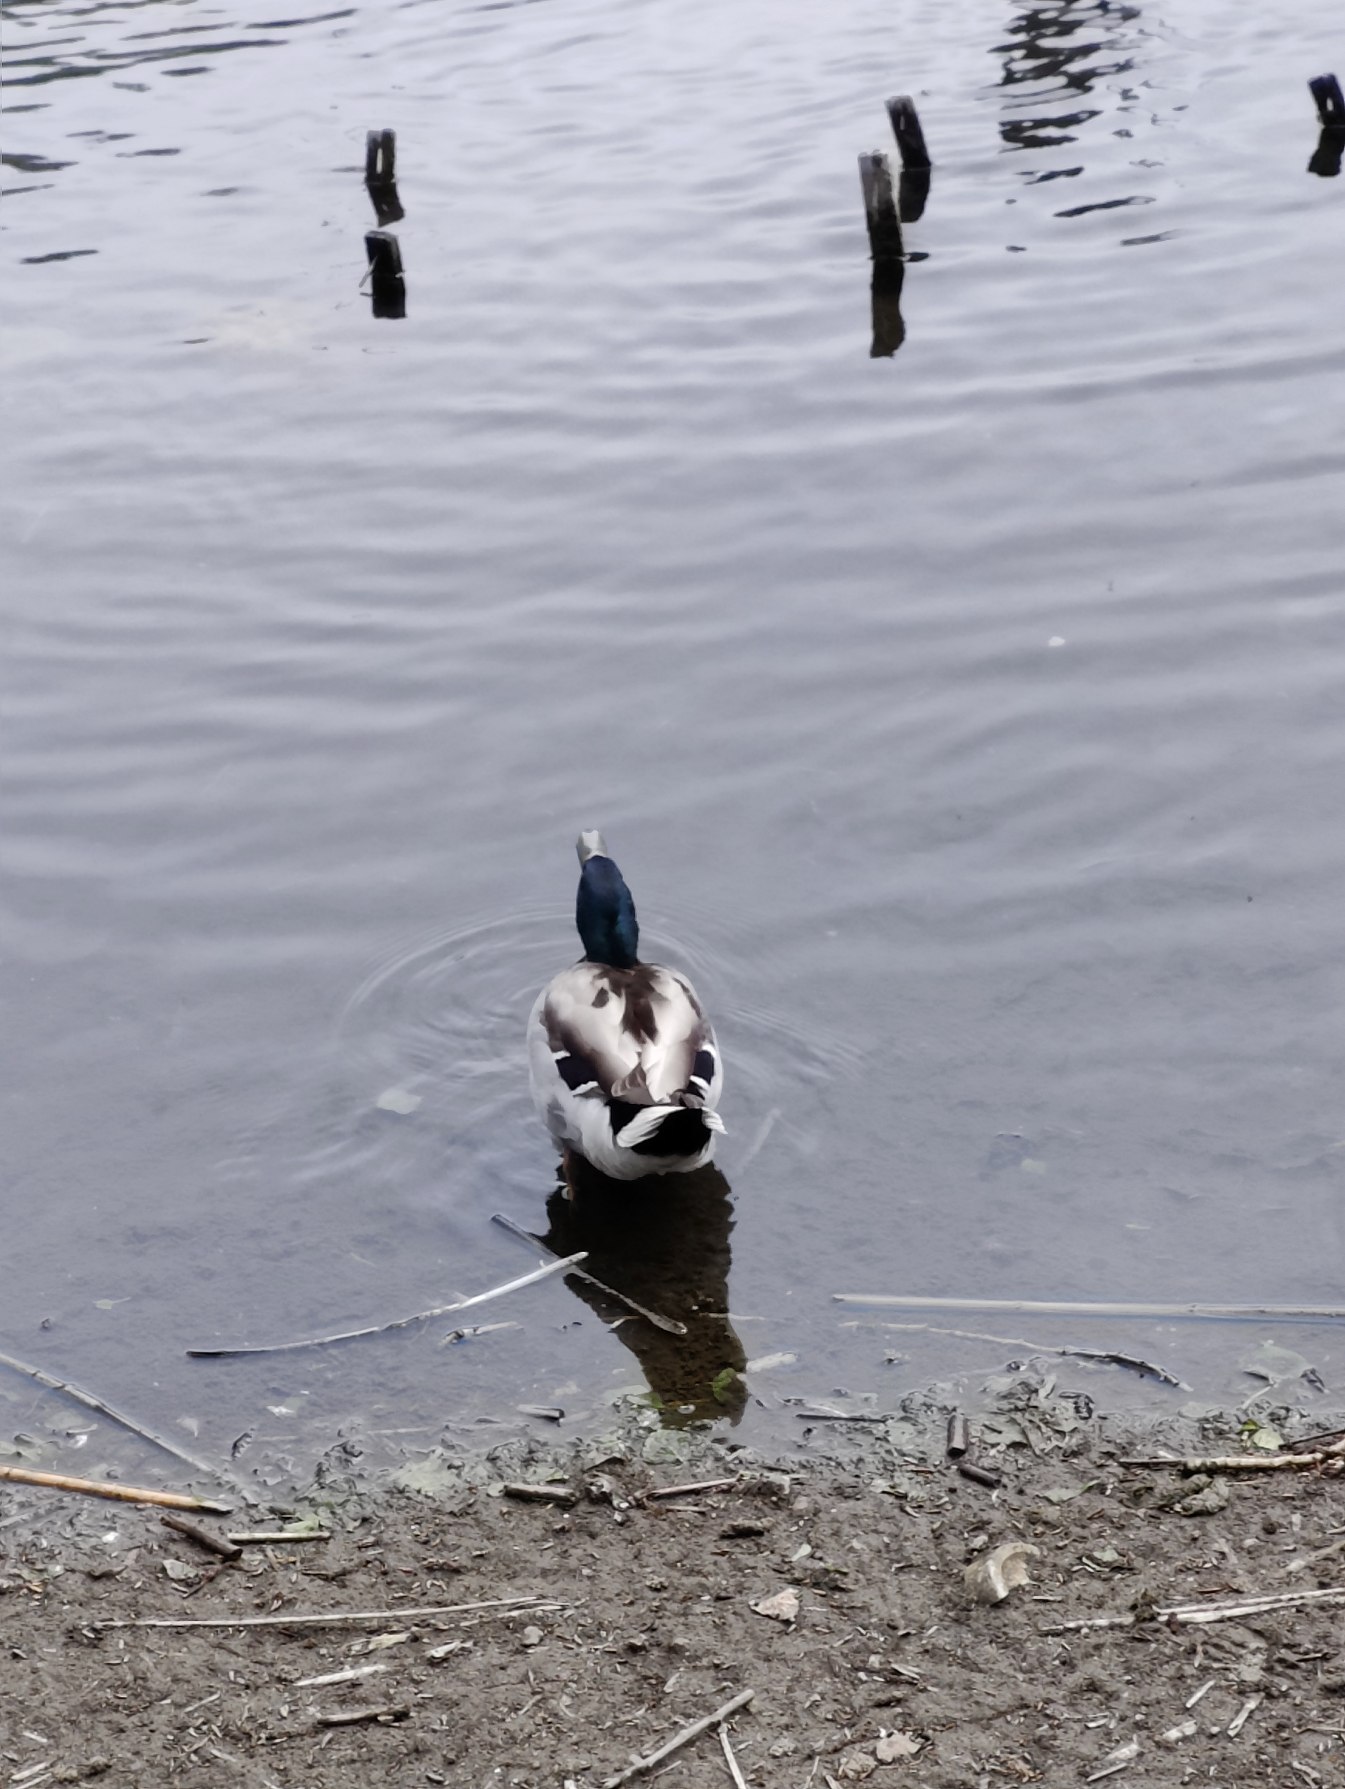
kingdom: Animalia
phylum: Chordata
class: Aves
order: Anseriformes
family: Anatidae
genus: Anas
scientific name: Anas platyrhynchos
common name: Gråand
